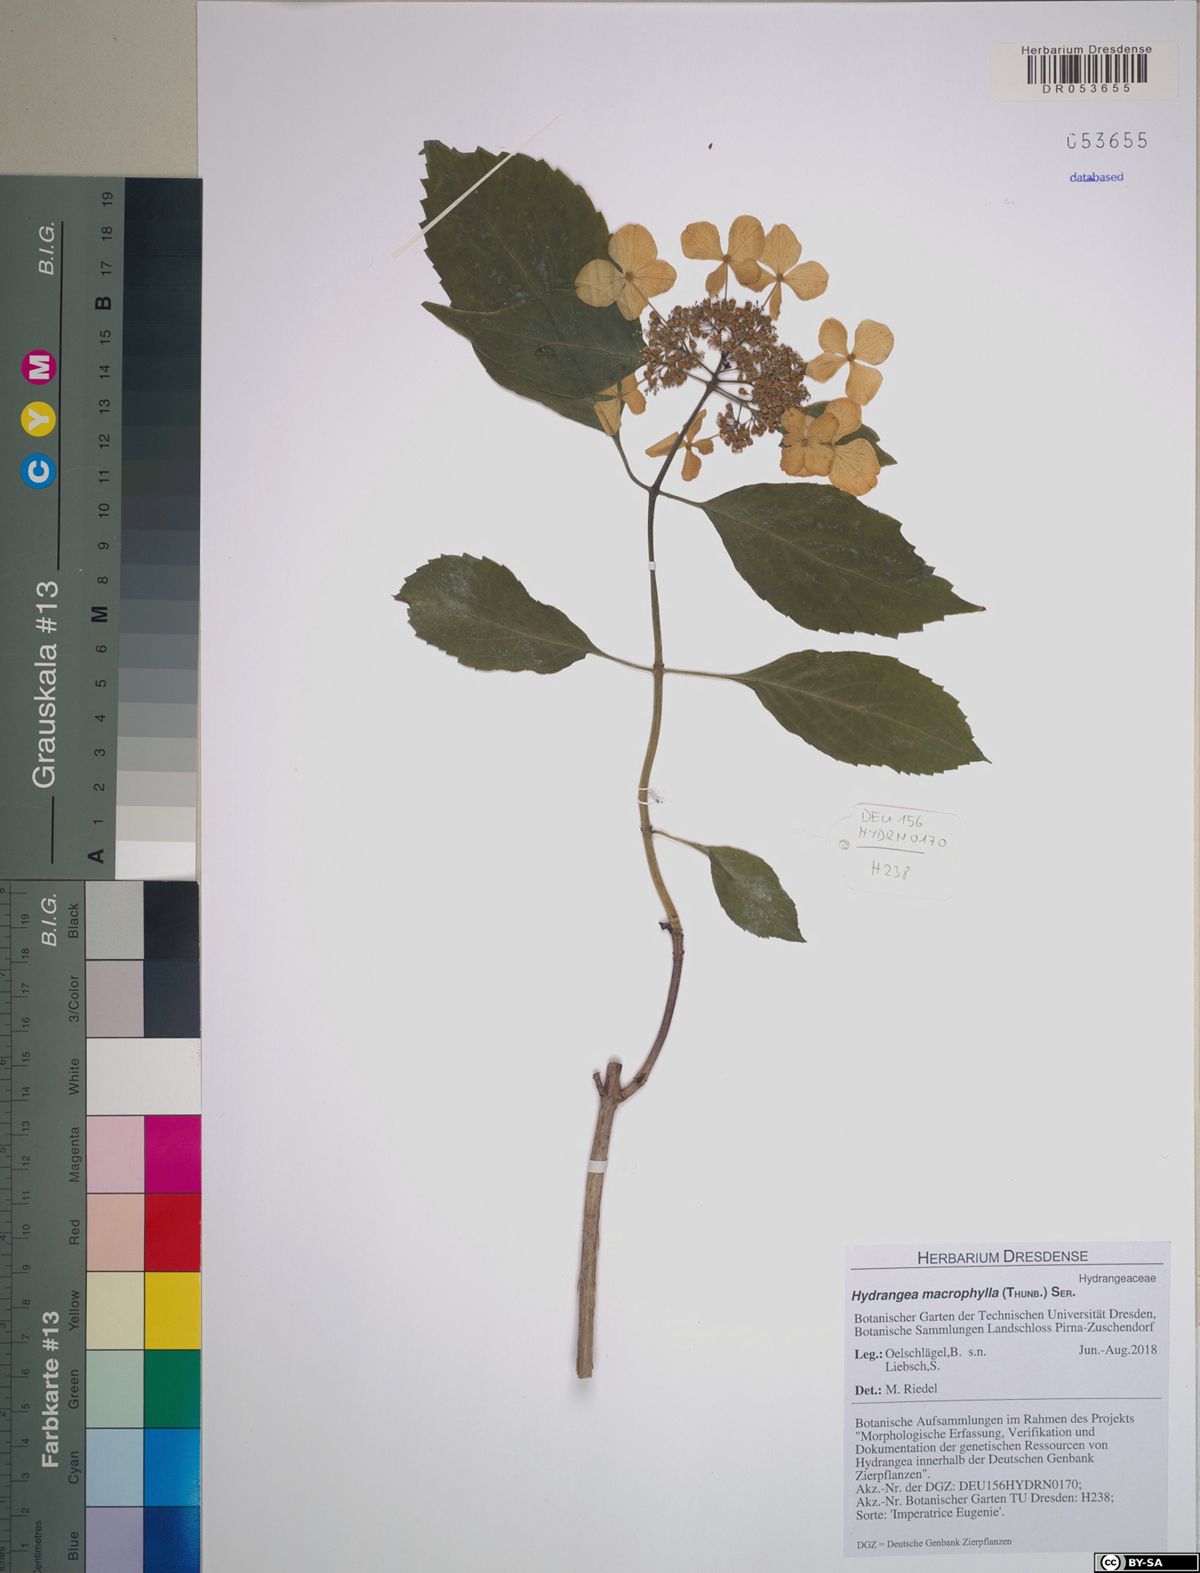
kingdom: Plantae
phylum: Tracheophyta
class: Magnoliopsida
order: Cornales
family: Hydrangeaceae
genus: Hydrangea
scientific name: Hydrangea macrophylla
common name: Hydrangea
